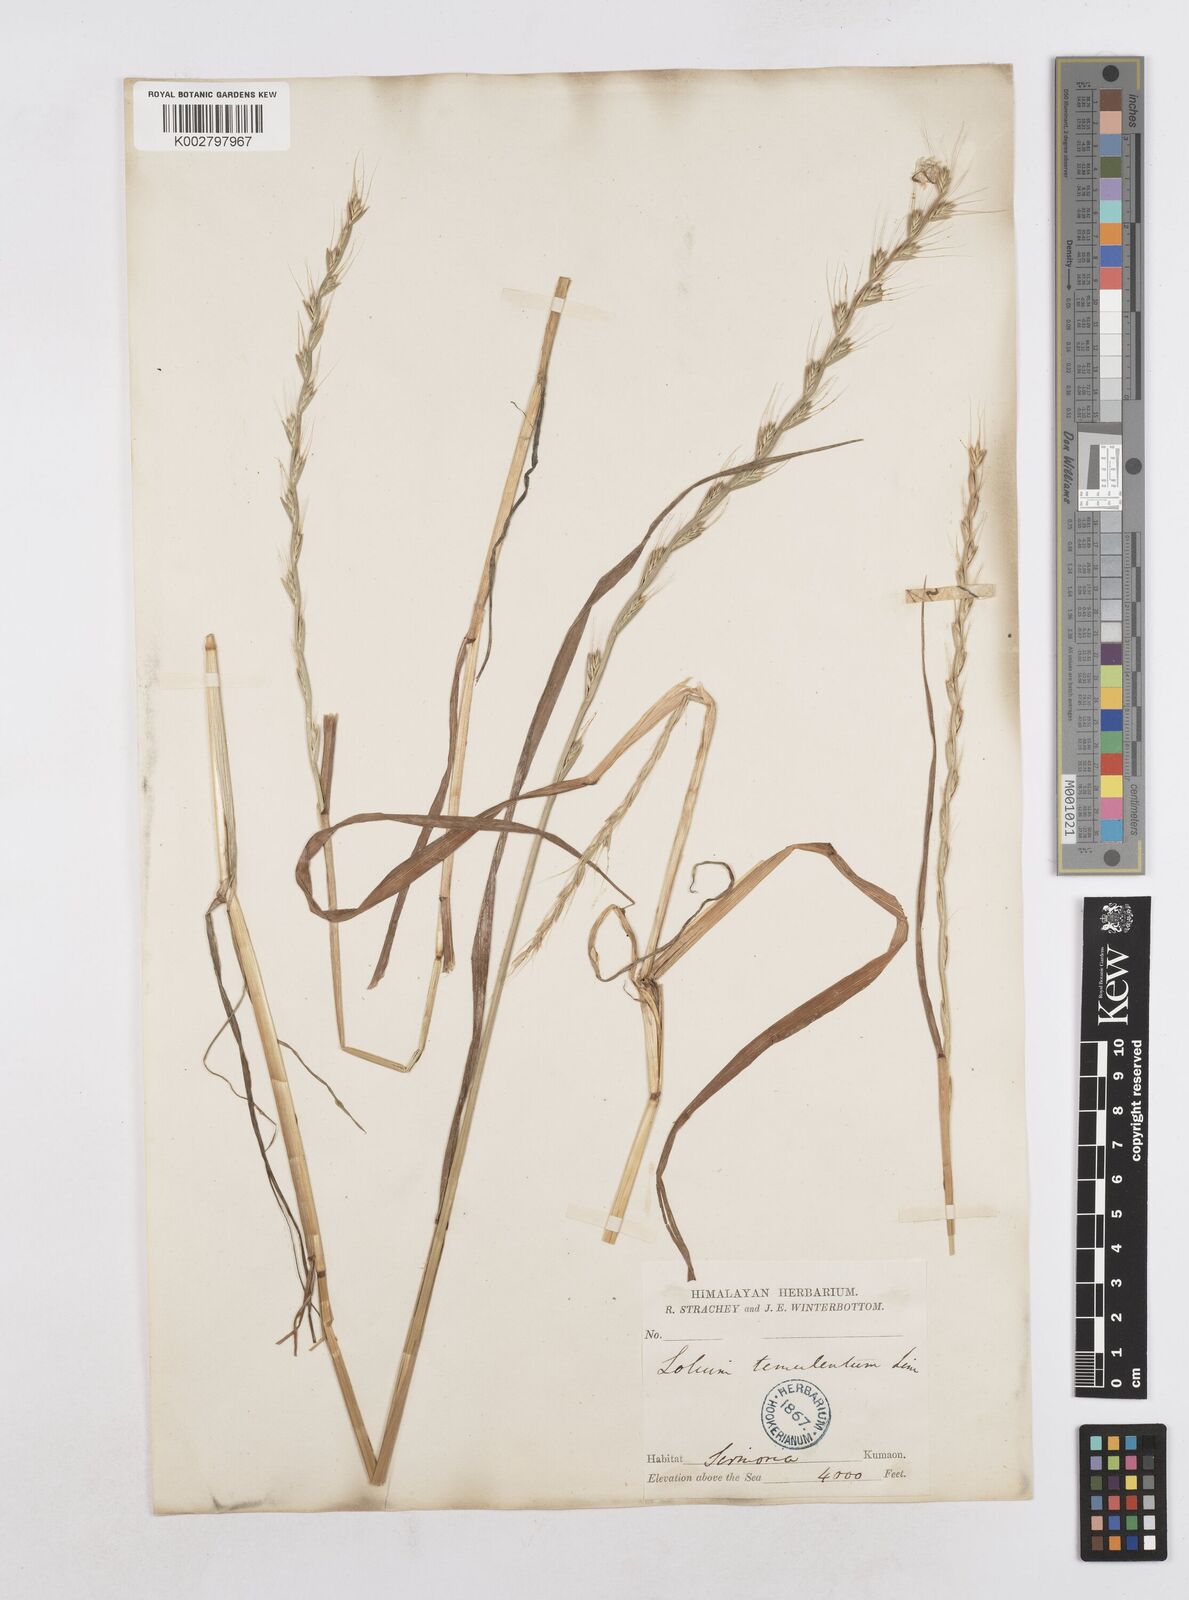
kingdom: Plantae
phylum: Tracheophyta
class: Liliopsida
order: Poales
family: Poaceae
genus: Lolium
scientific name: Lolium temulentum
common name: Darnel
